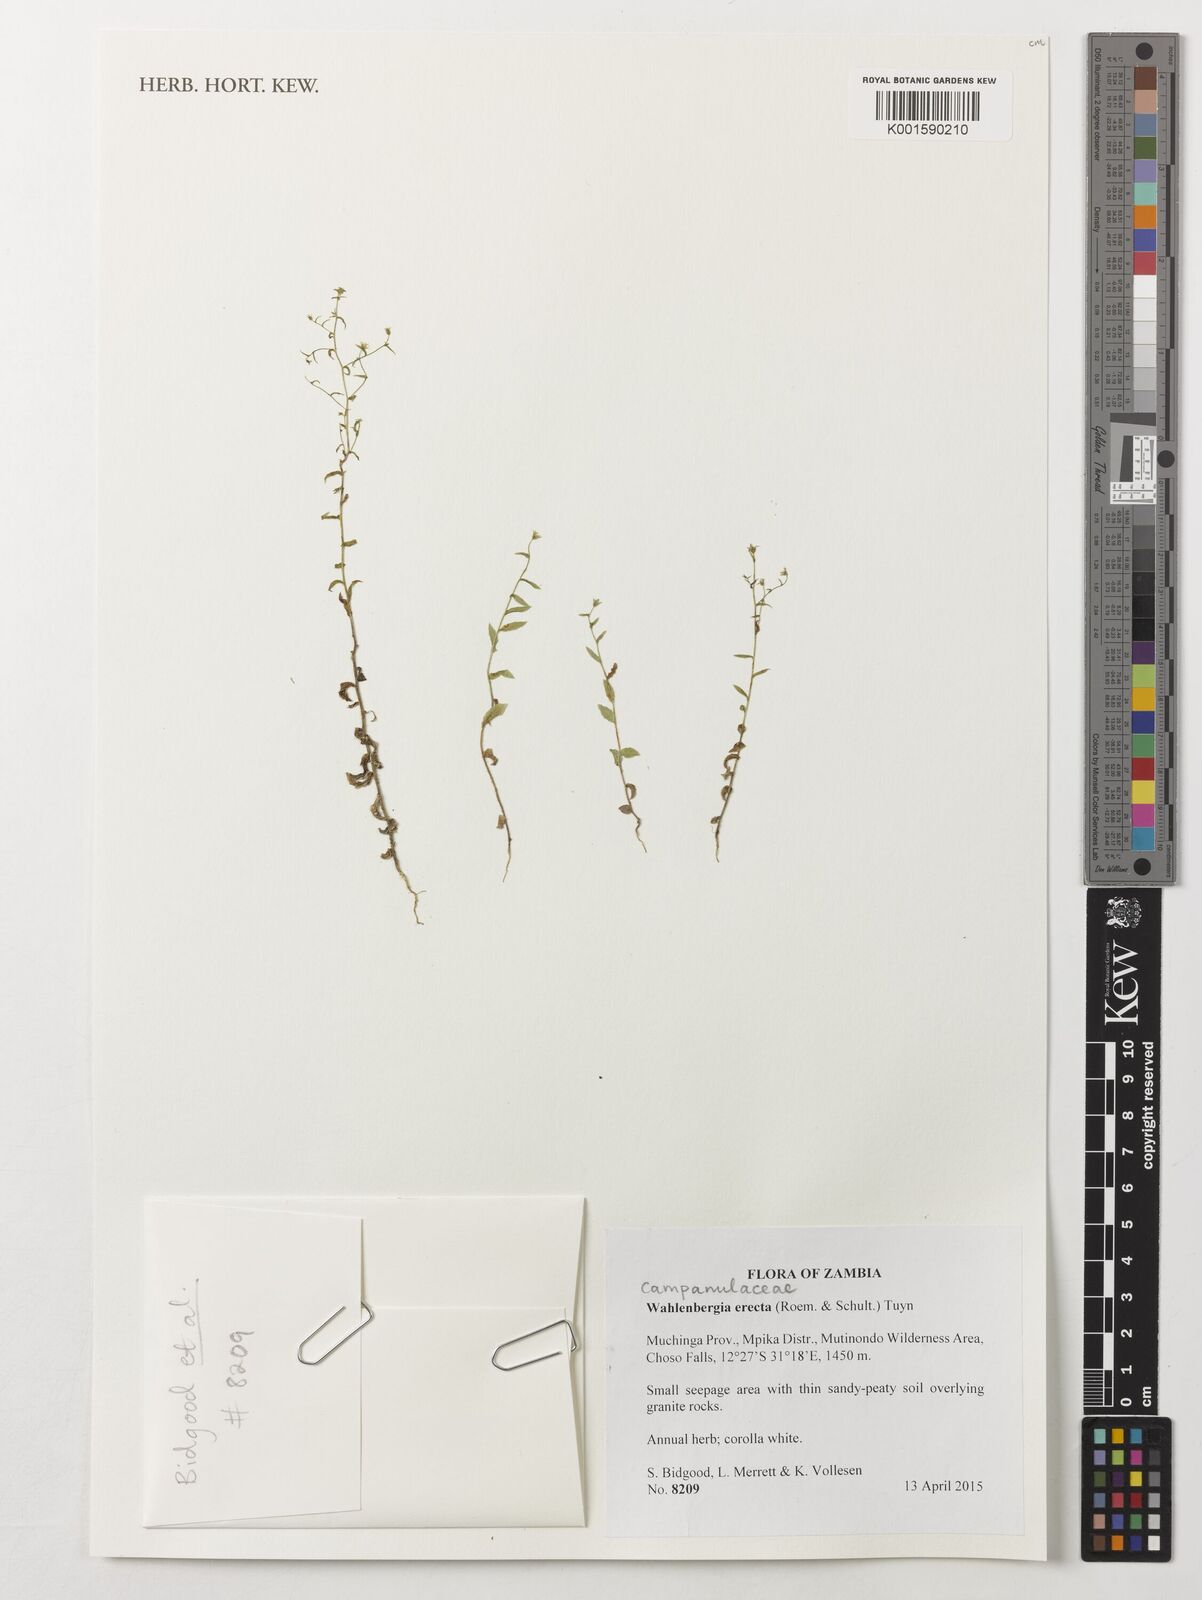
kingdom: Plantae
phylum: Tracheophyta
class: Magnoliopsida
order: Asterales
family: Campanulaceae
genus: Wahlenbergia
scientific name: Wahlenbergia erecta
